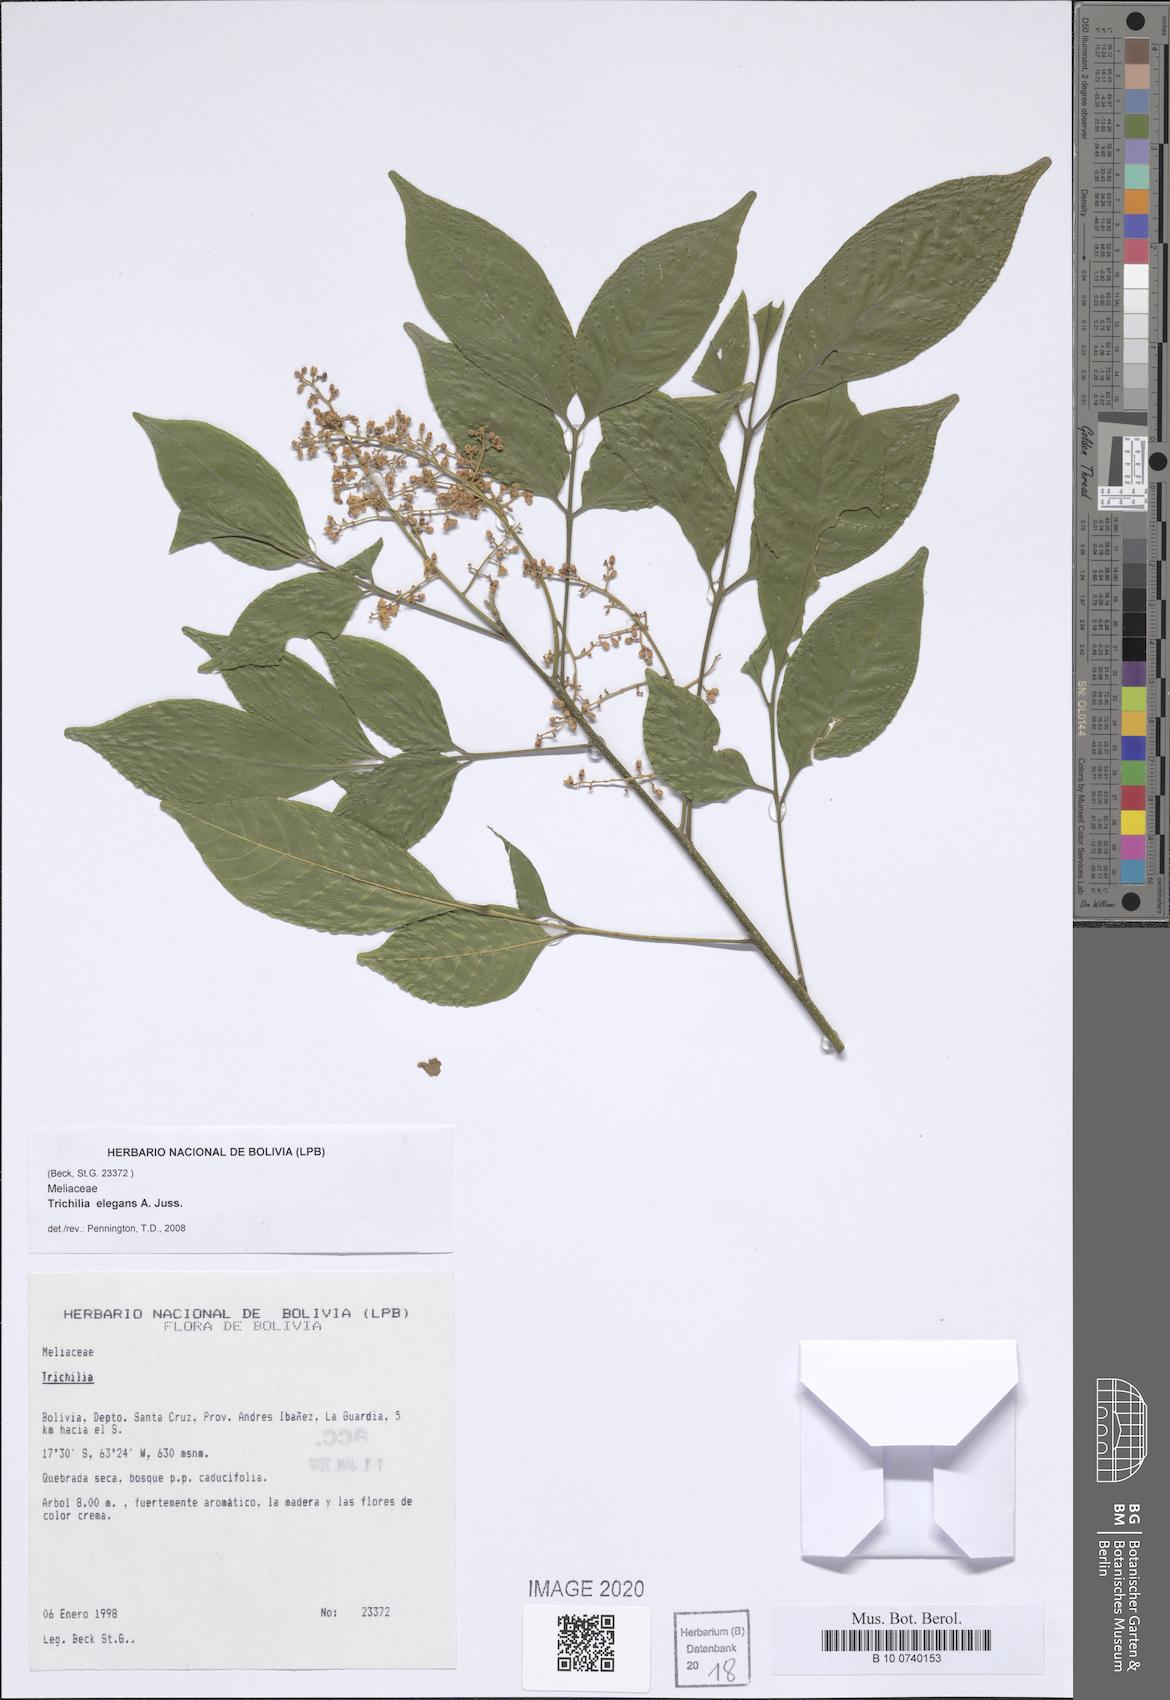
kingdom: Plantae
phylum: Tracheophyta
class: Magnoliopsida
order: Sapindales
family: Meliaceae
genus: Trichilia
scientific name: Trichilia elegans
